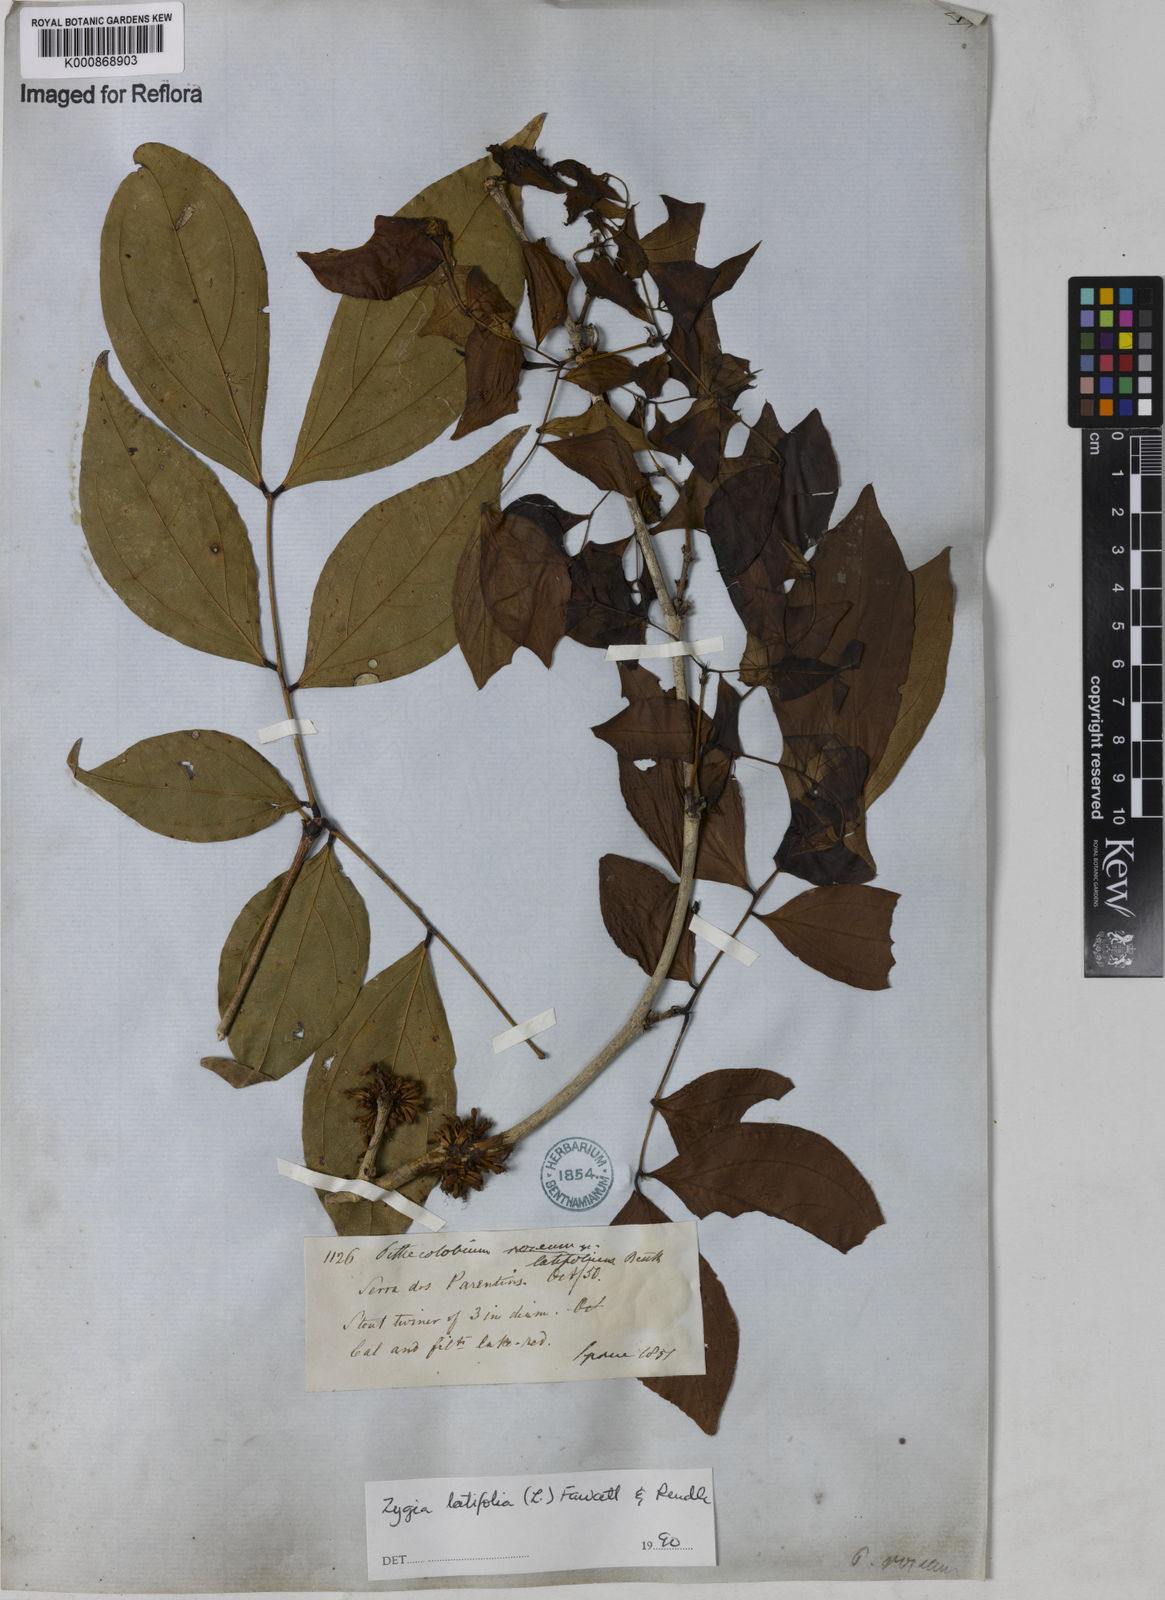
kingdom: Plantae
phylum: Tracheophyta
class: Magnoliopsida
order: Fabales
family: Fabaceae
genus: Zygia
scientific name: Zygia latifolia
